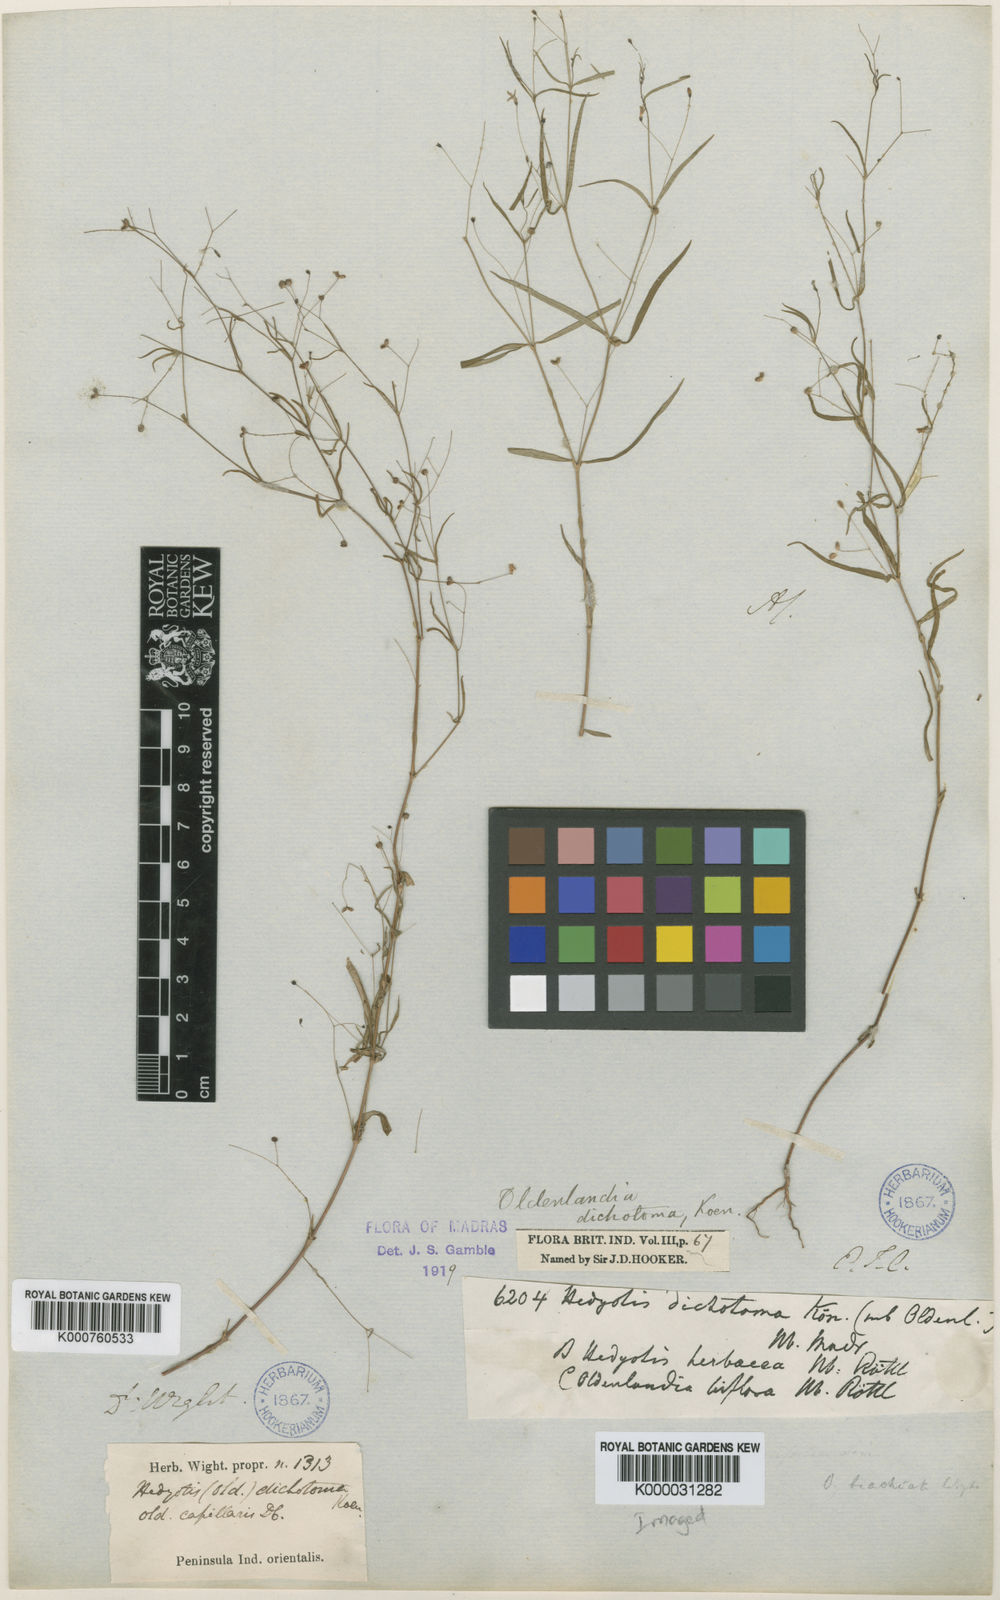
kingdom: Plantae
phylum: Tracheophyta
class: Magnoliopsida
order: Gentianales
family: Rubiaceae
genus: Oldenlandia
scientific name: Oldenlandia affinis
